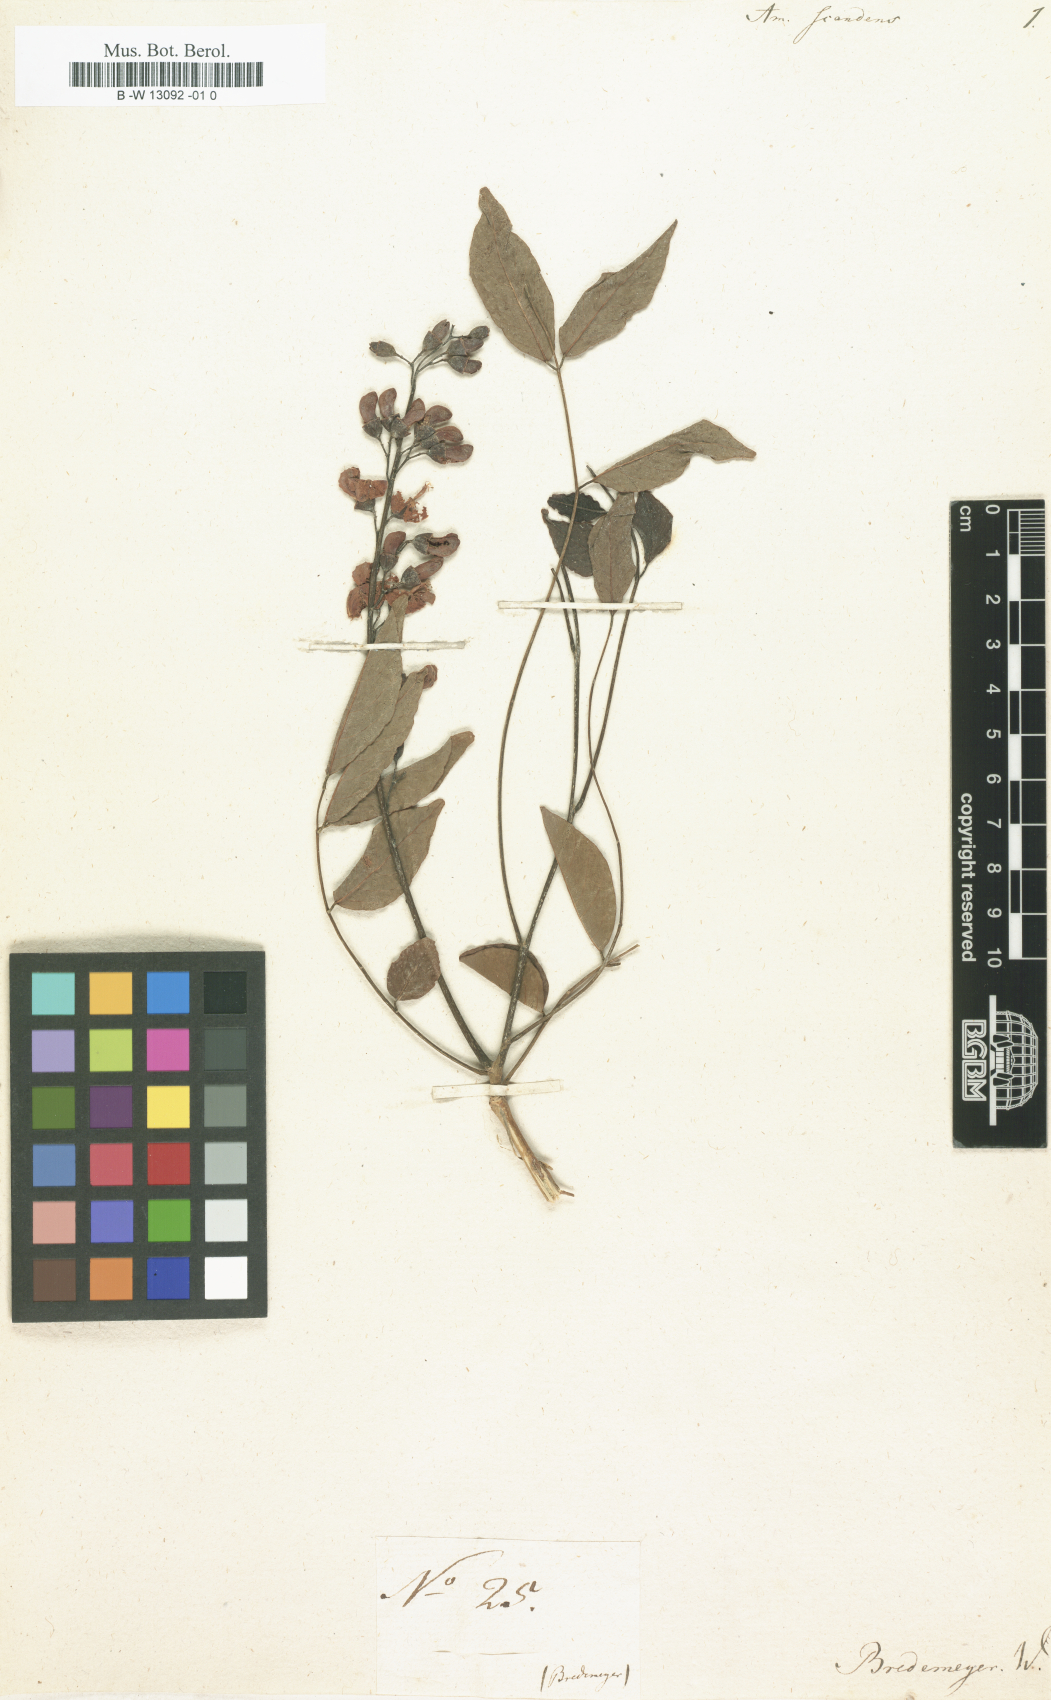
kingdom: Plantae
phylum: Tracheophyta
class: Magnoliopsida
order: Fabales
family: Fabaceae
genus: Amerimnum
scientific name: Amerimnum
